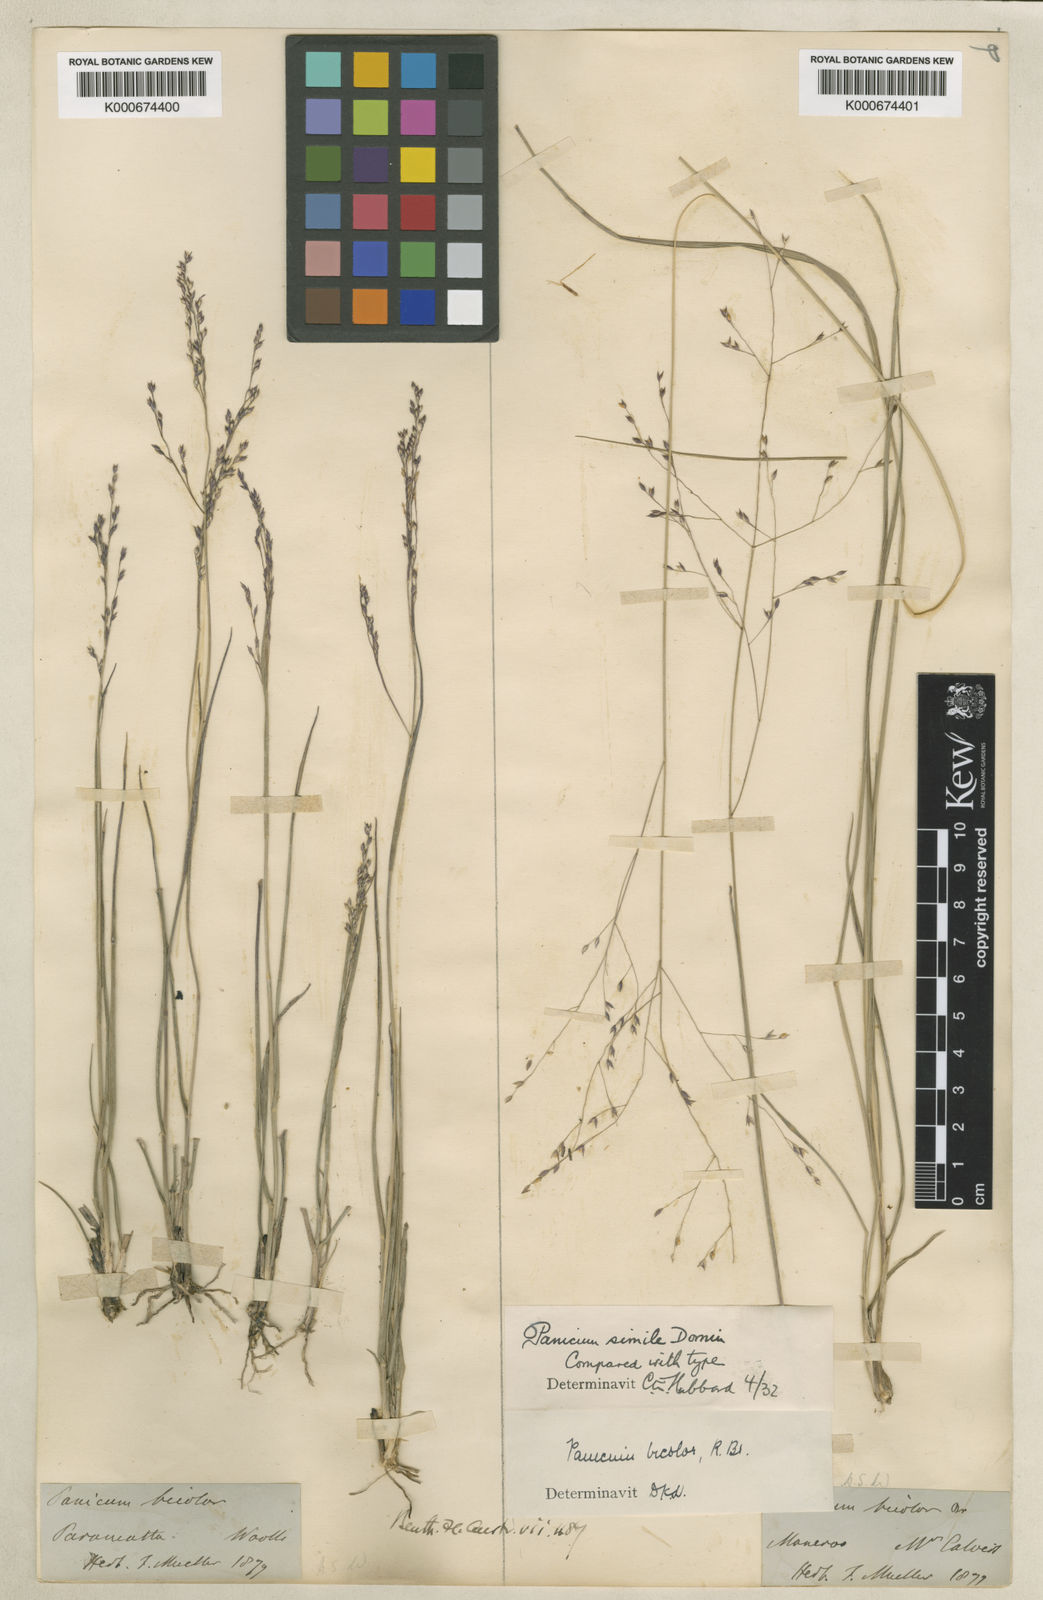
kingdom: Plantae
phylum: Tracheophyta
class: Liliopsida
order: Poales
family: Poaceae
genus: Panicum
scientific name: Panicum simile
